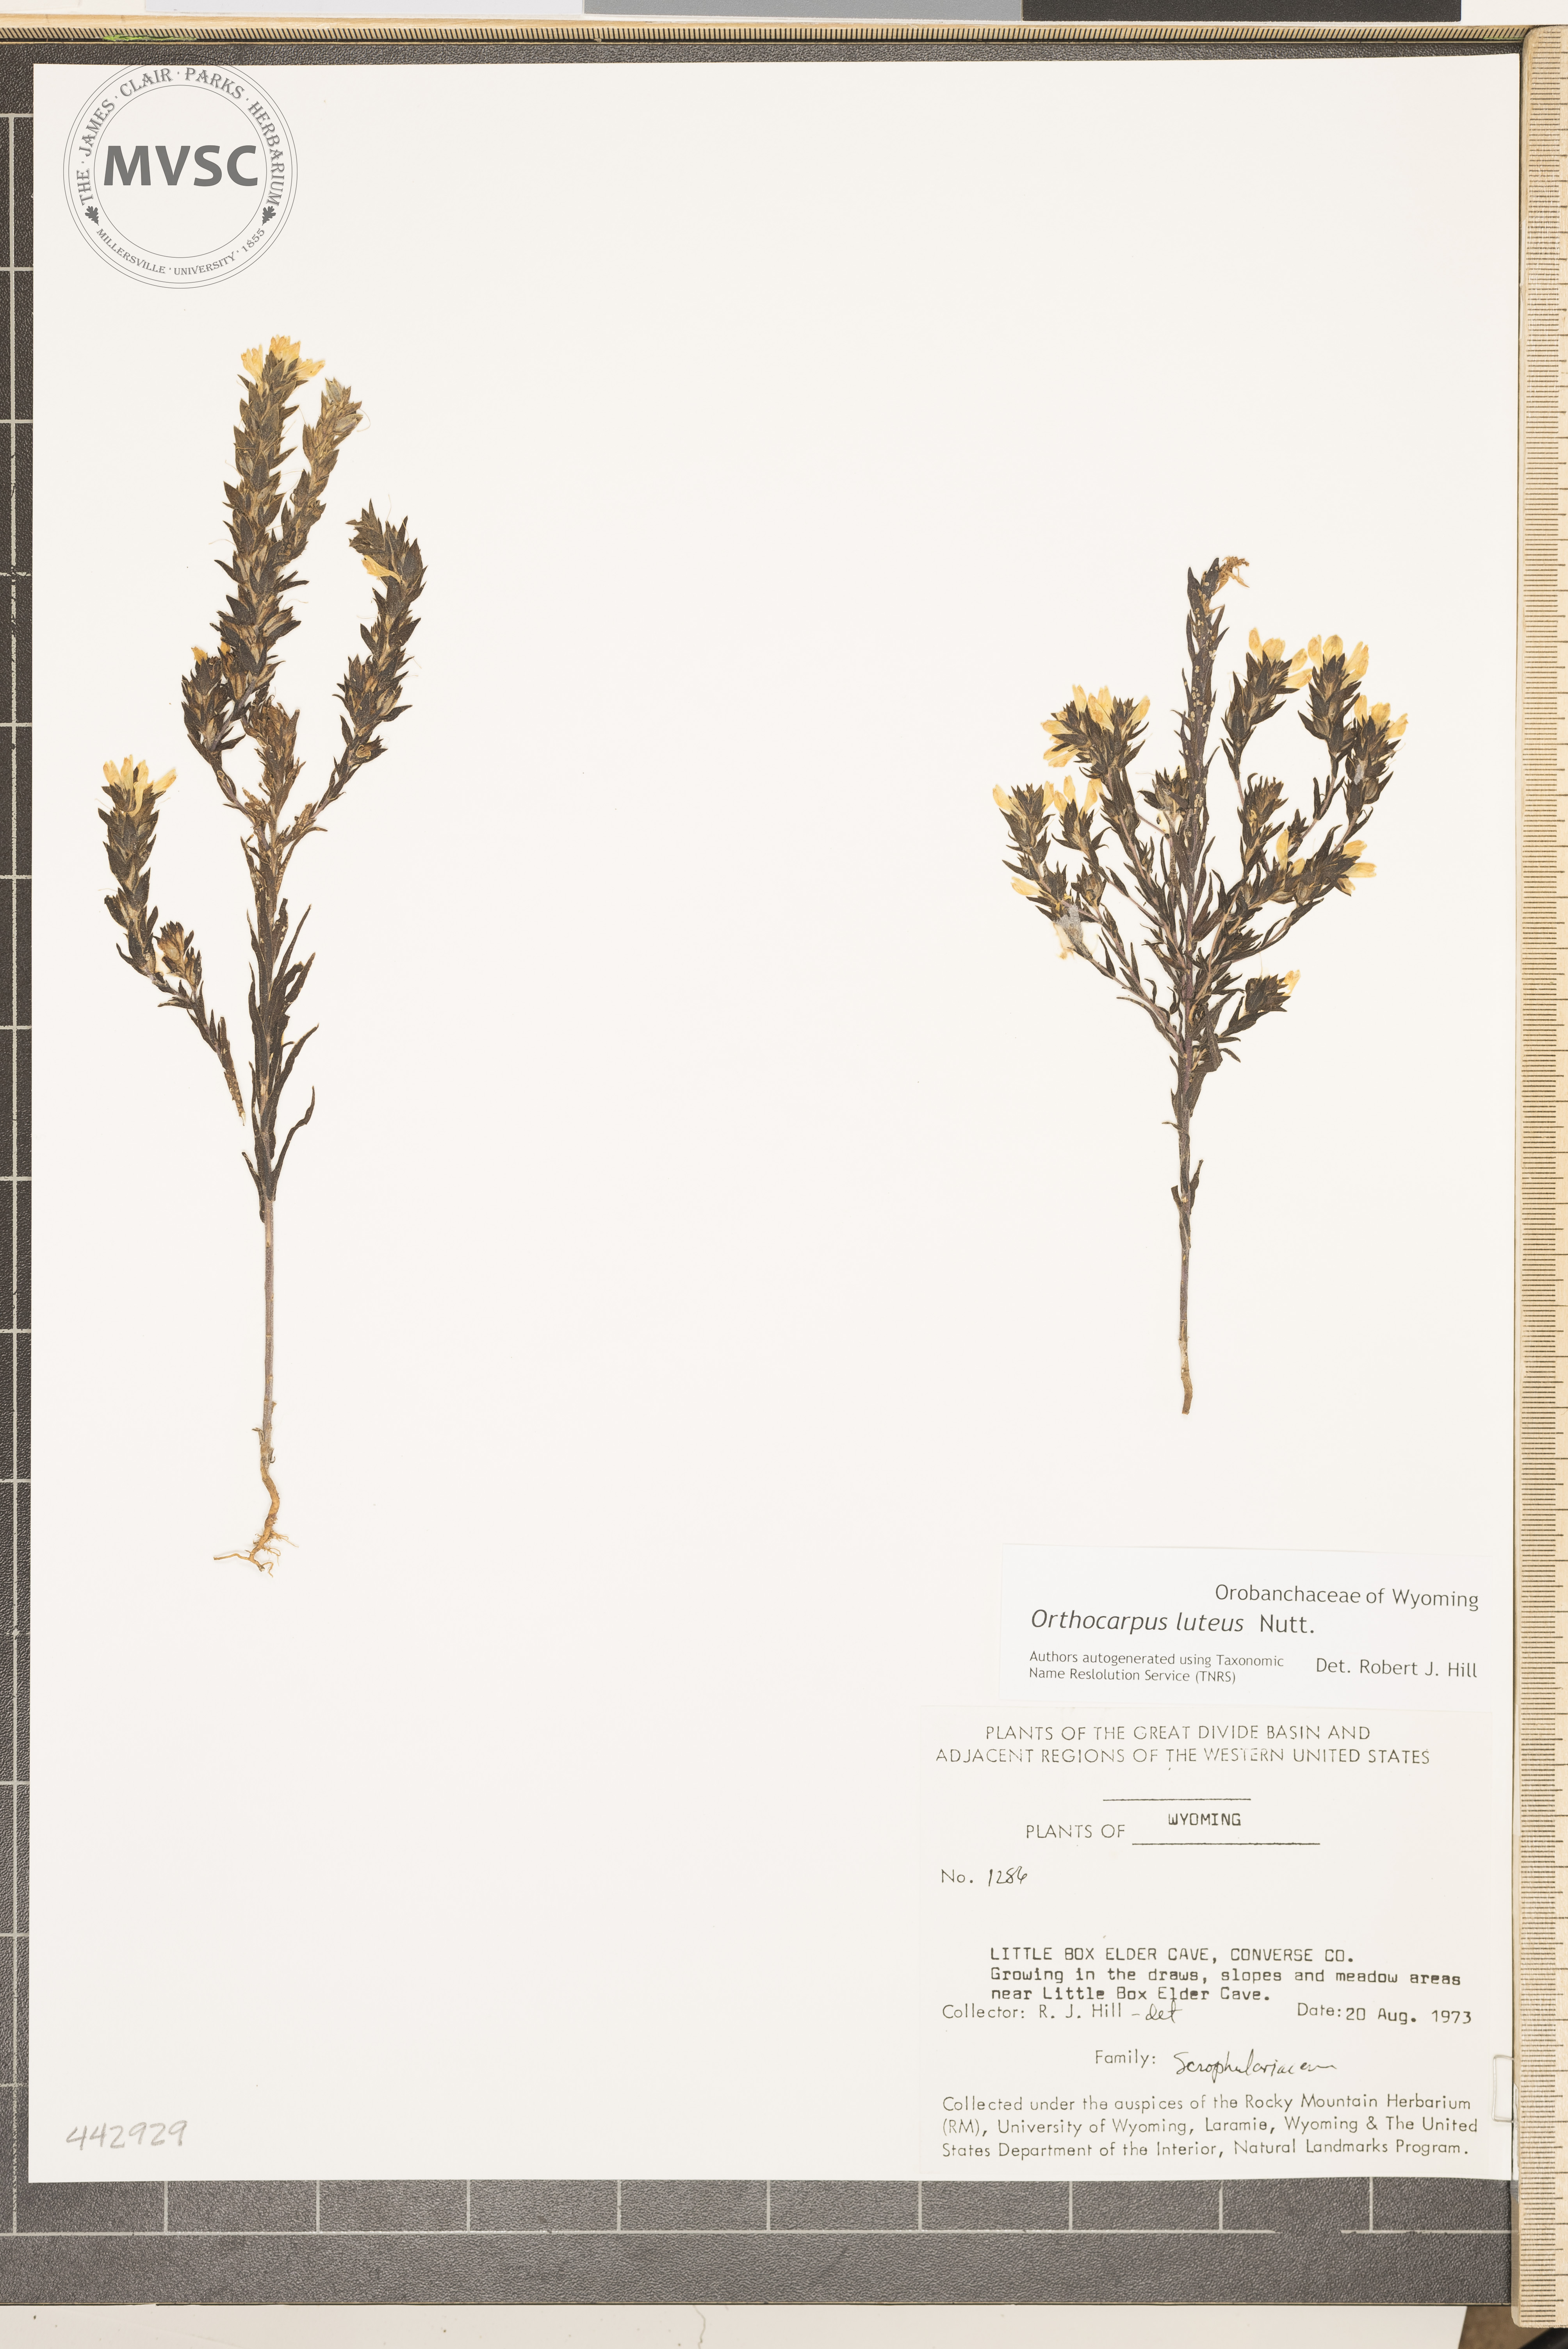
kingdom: Plantae
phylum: Tracheophyta
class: Magnoliopsida
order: Lamiales
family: Orobanchaceae
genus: Orthocarpus
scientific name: Orthocarpus luteus
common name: Golden-tongue owl's-clover
